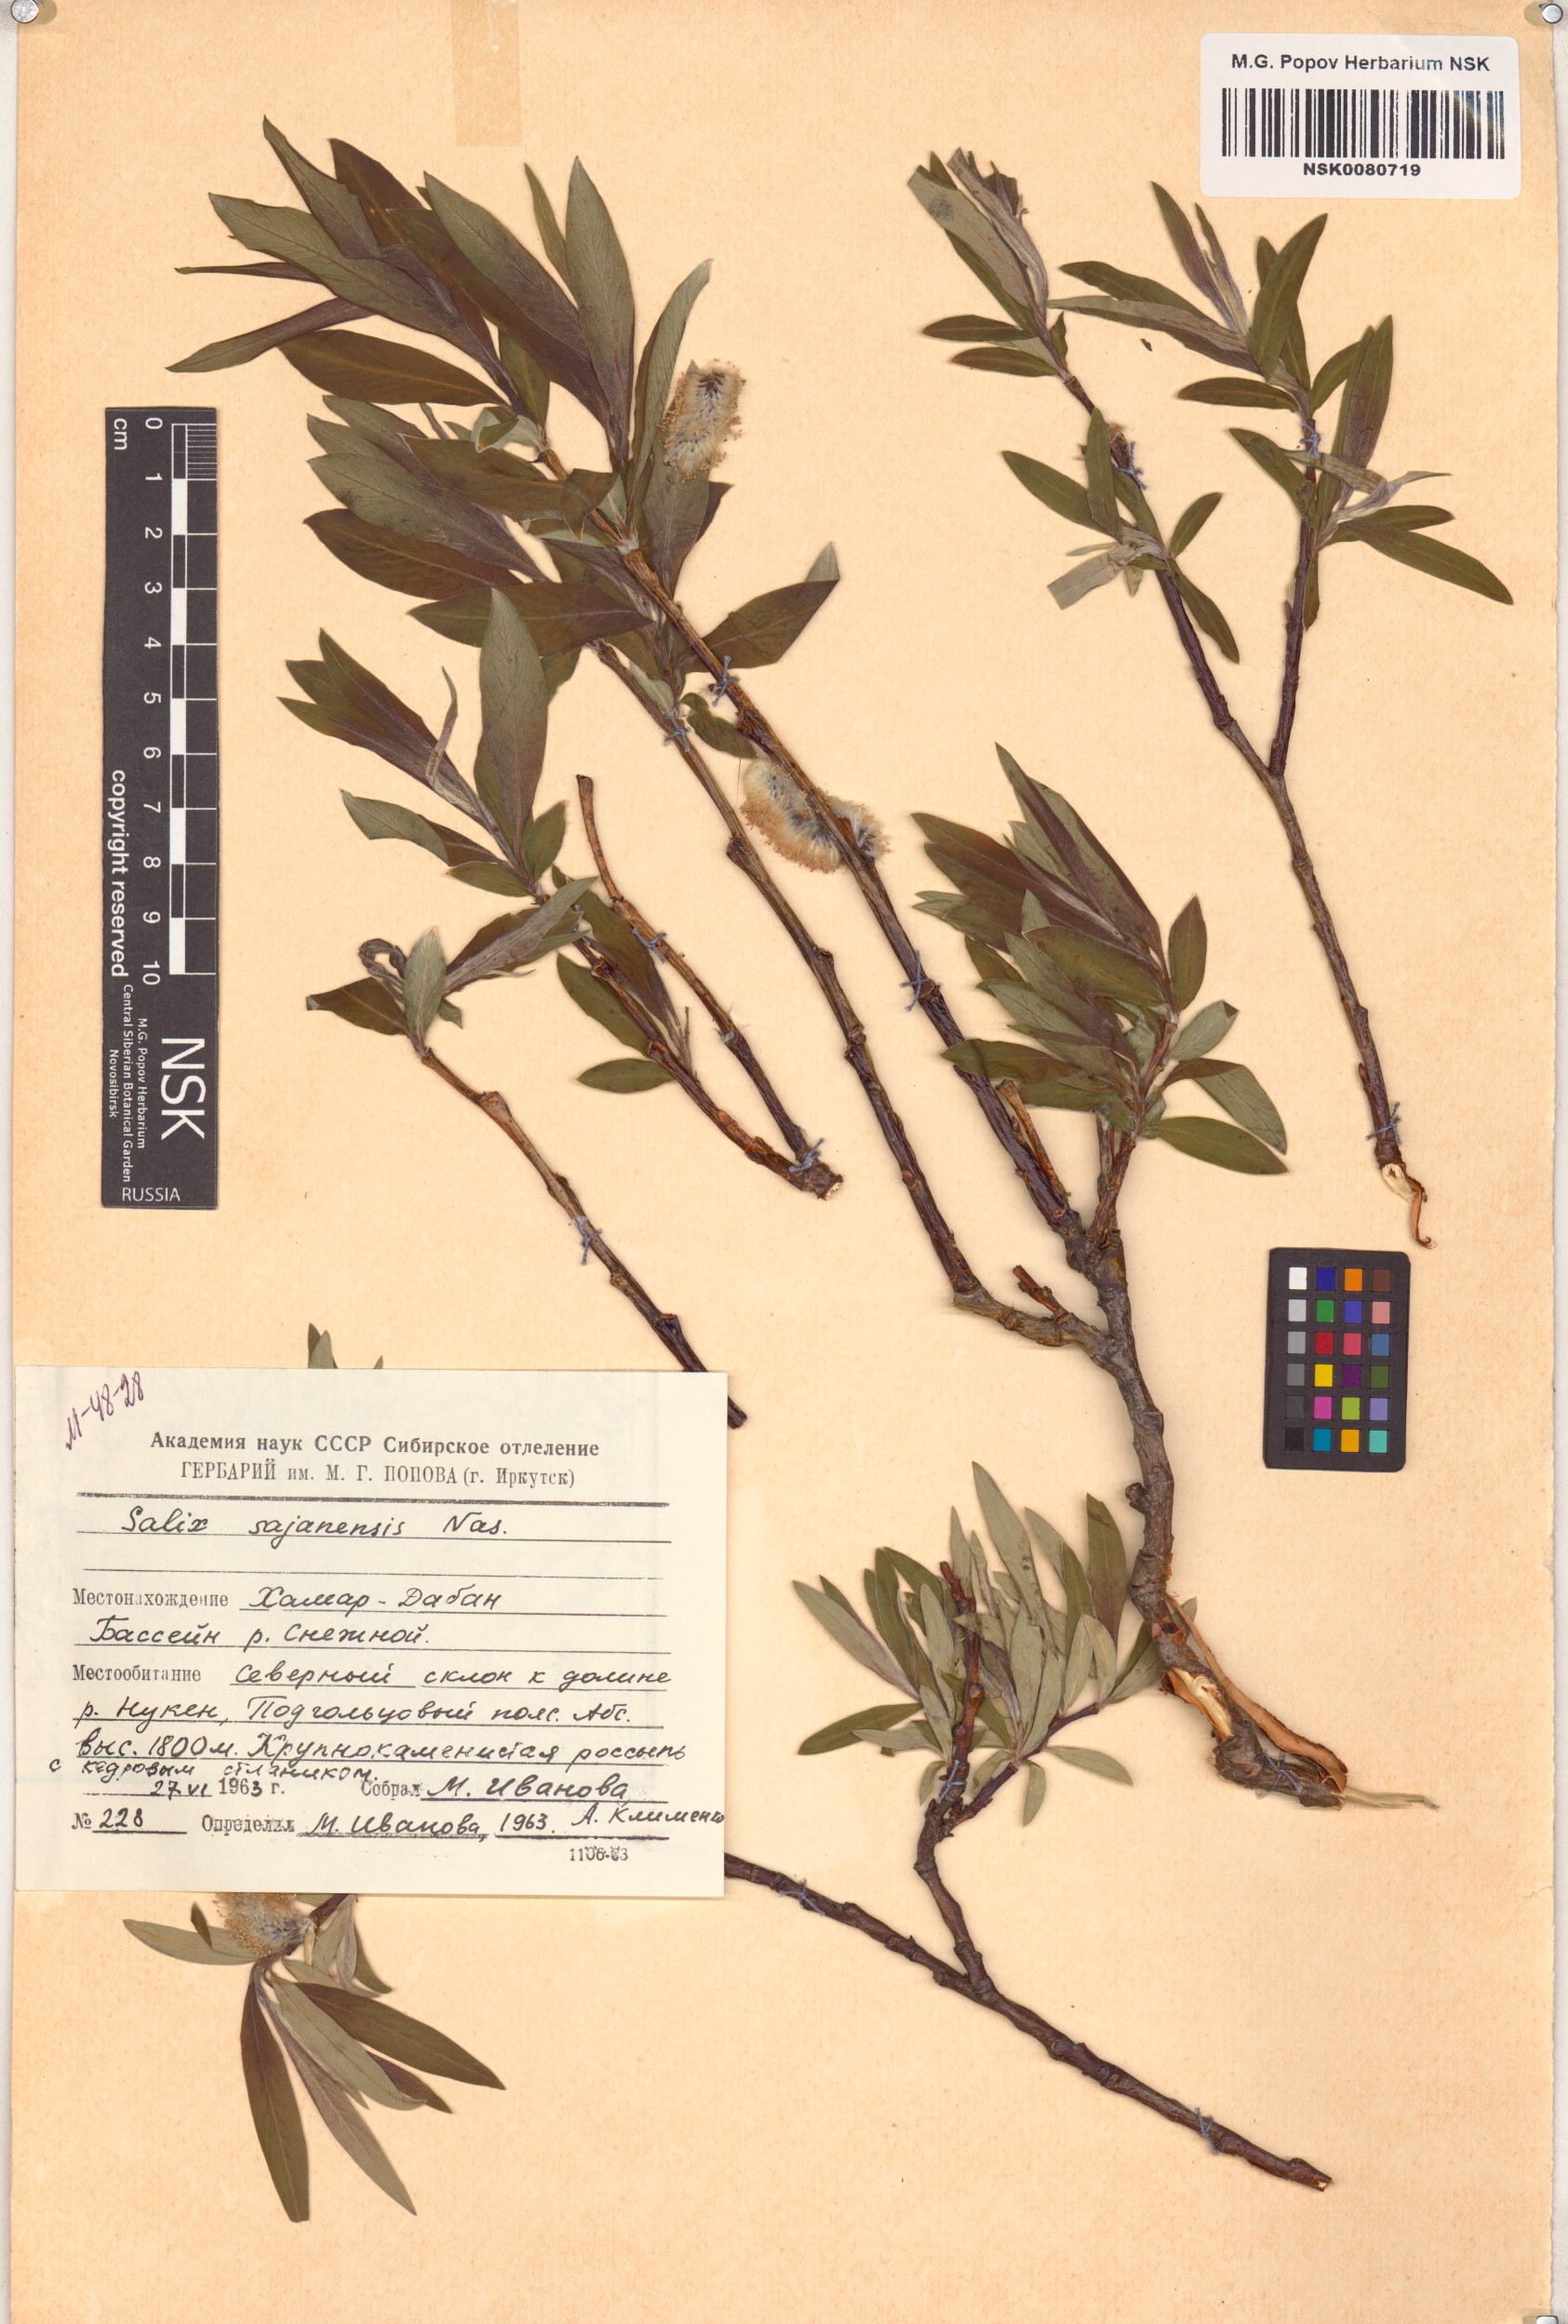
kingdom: Plantae
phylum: Tracheophyta
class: Magnoliopsida
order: Malpighiales
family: Salicaceae
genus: Salix
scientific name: Salix sajanensis
